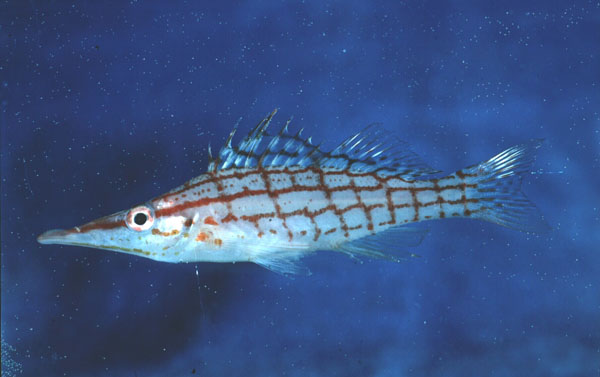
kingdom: Animalia
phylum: Chordata
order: Perciformes
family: Cirrhitidae
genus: Oxycirrhites
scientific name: Oxycirrhites typus
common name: Longnose hawkfish
